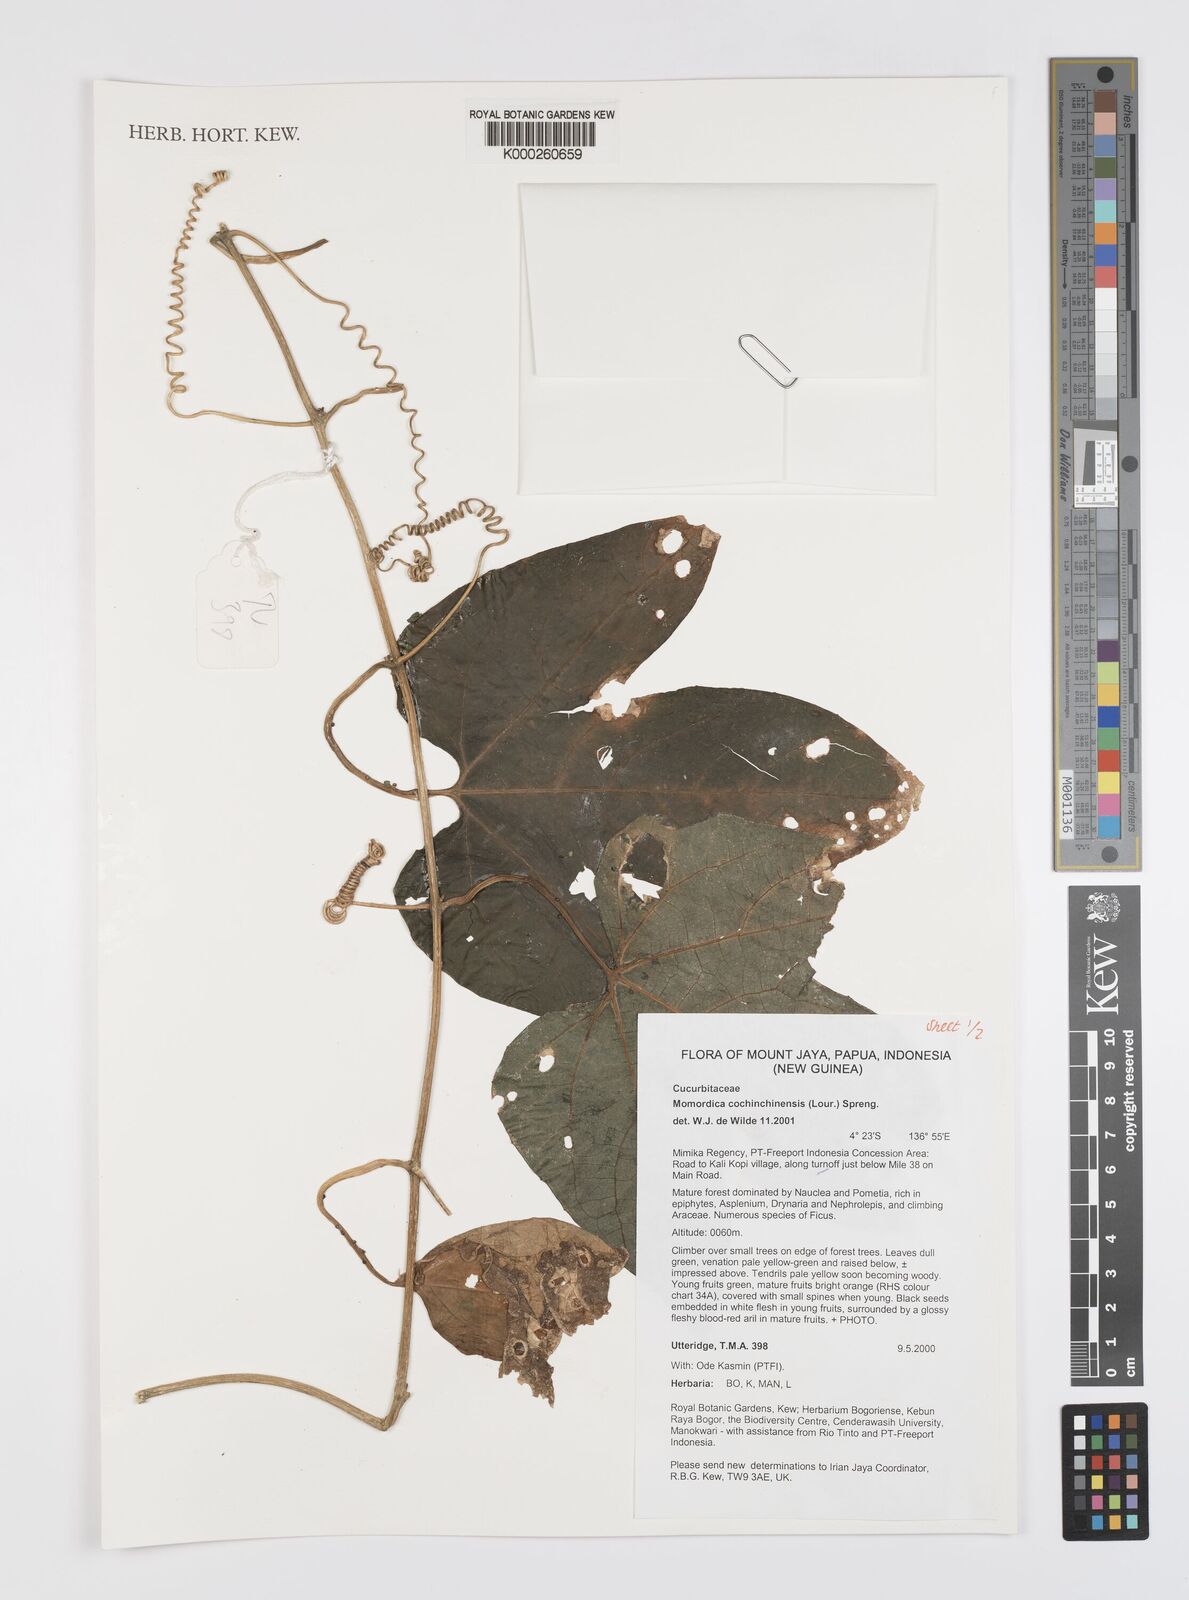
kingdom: Plantae
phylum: Tracheophyta
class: Magnoliopsida
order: Cucurbitales
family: Cucurbitaceae
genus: Momordica
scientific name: Momordica cochinchinensis
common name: Chinese bitter-cucumber
